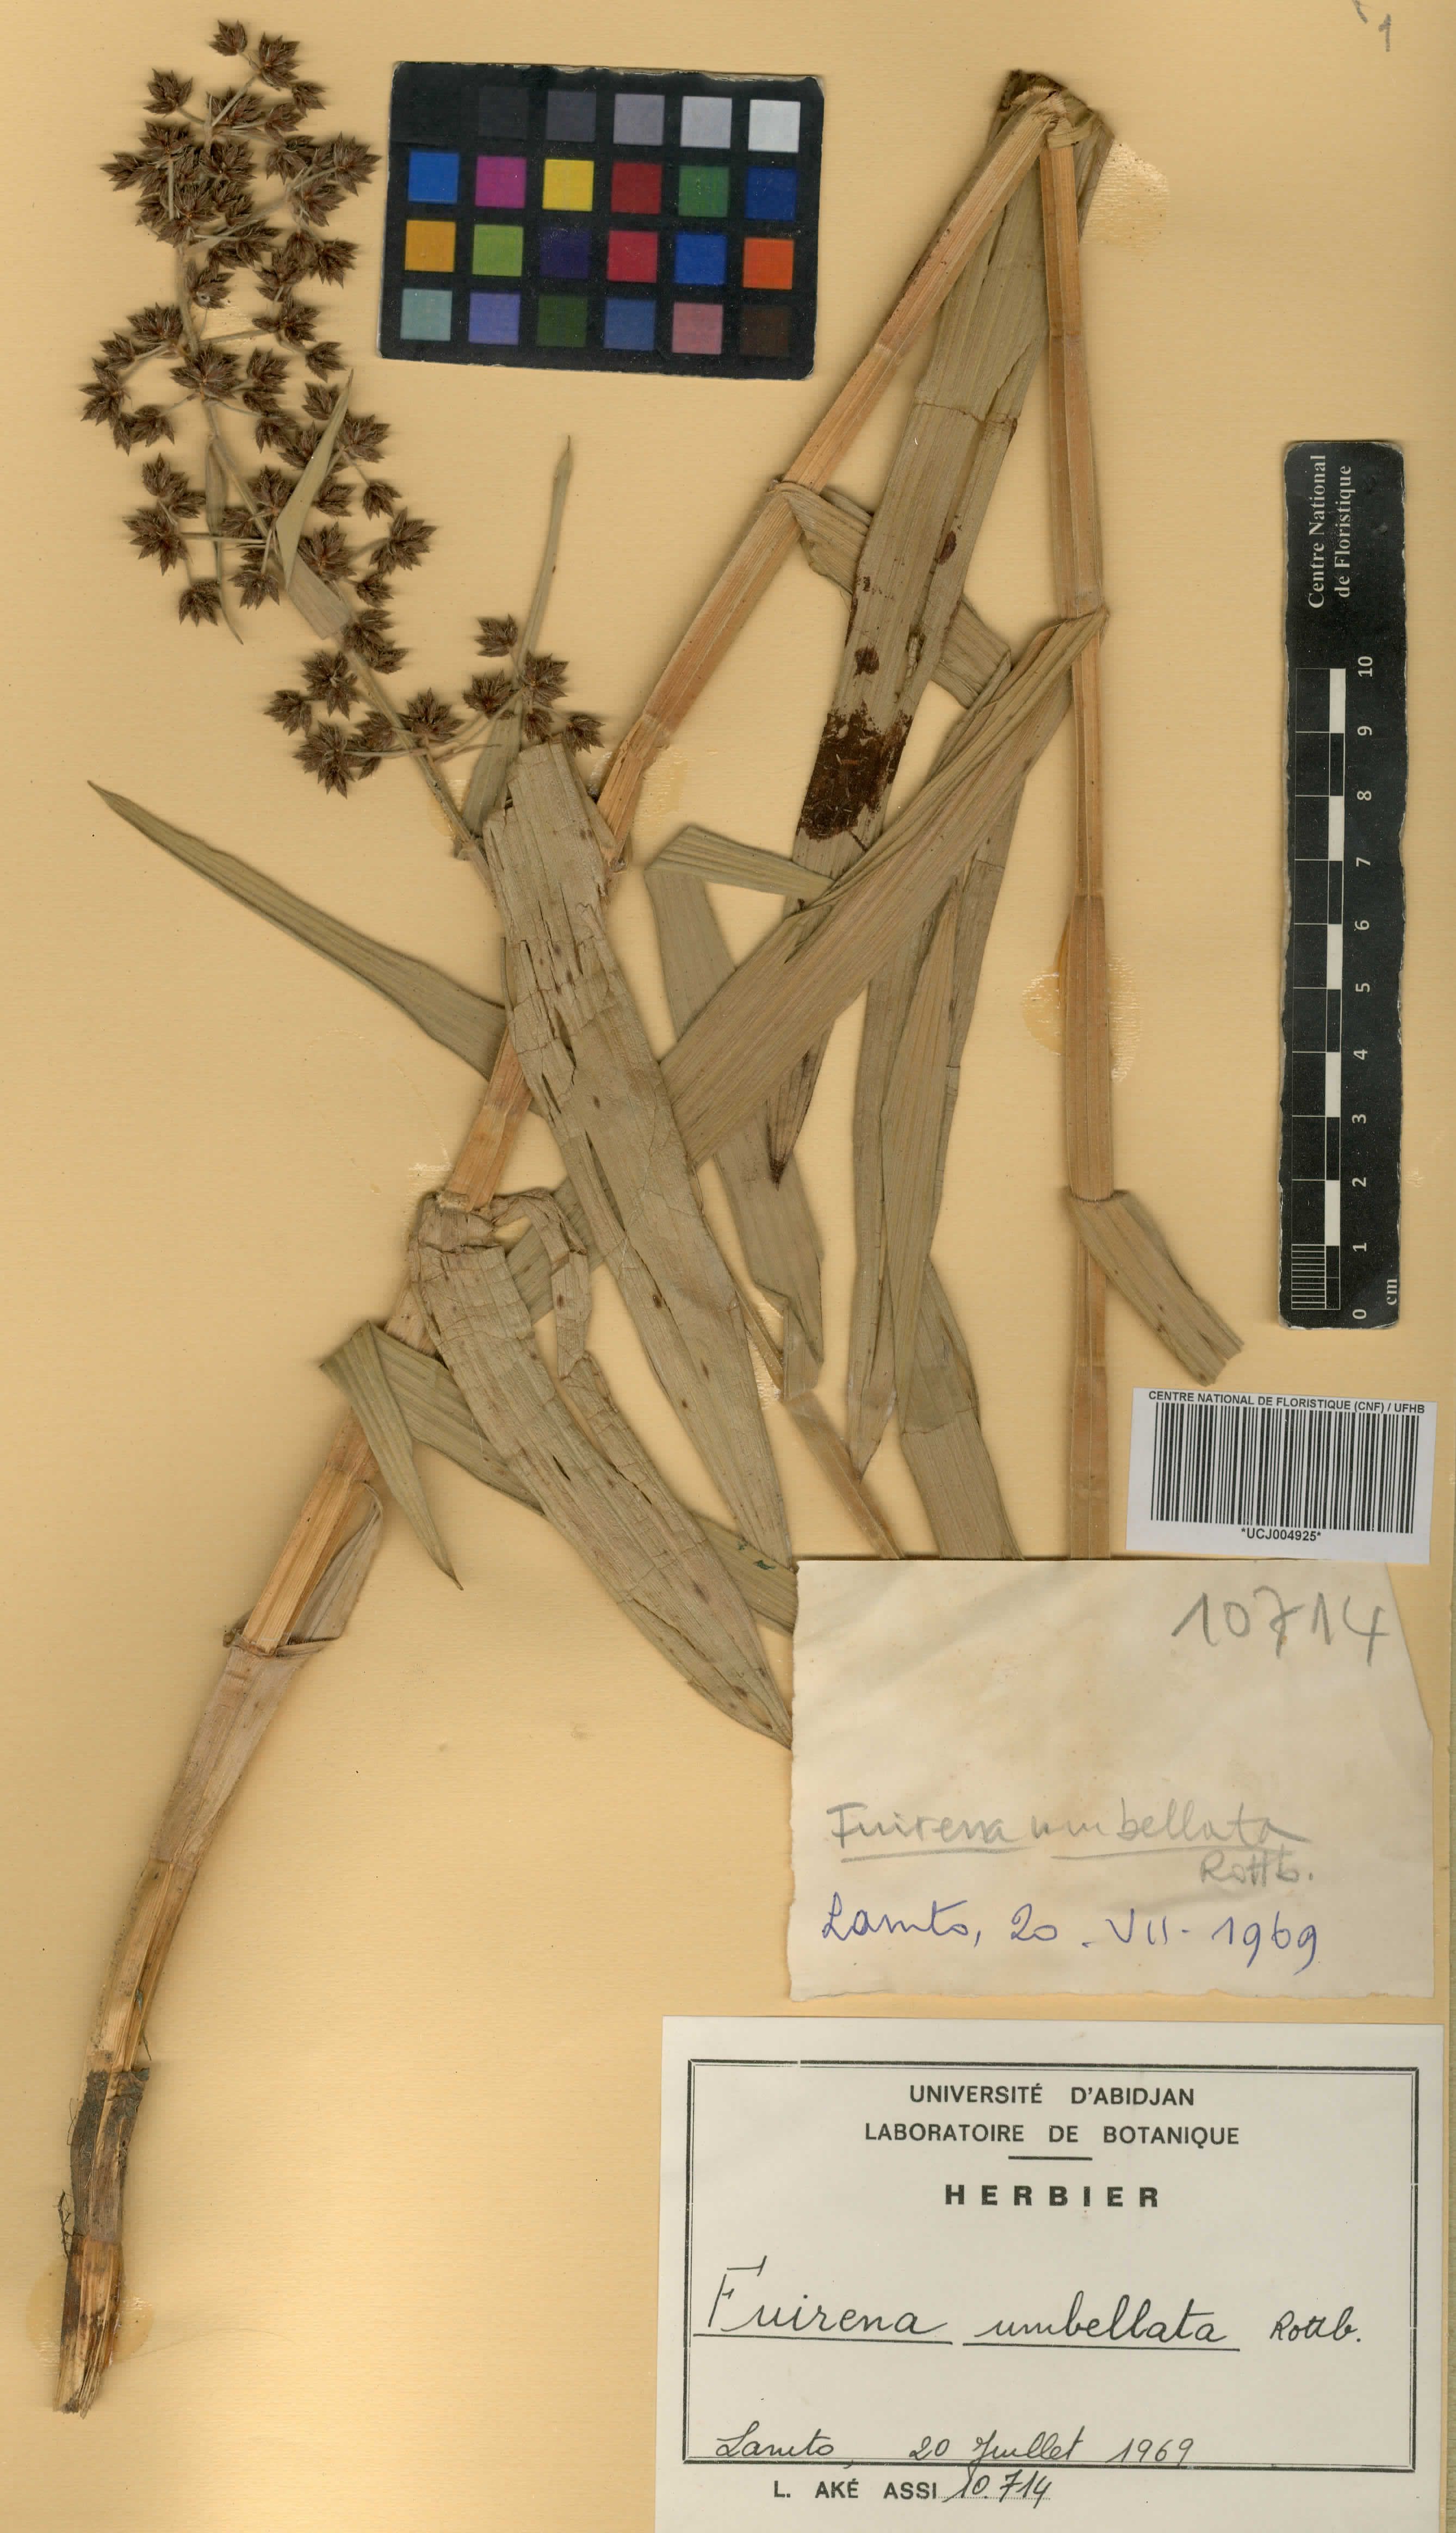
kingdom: Plantae
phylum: Tracheophyta
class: Liliopsida
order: Poales
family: Cyperaceae
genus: Fuirena
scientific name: Fuirena umbellata
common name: Yefen
